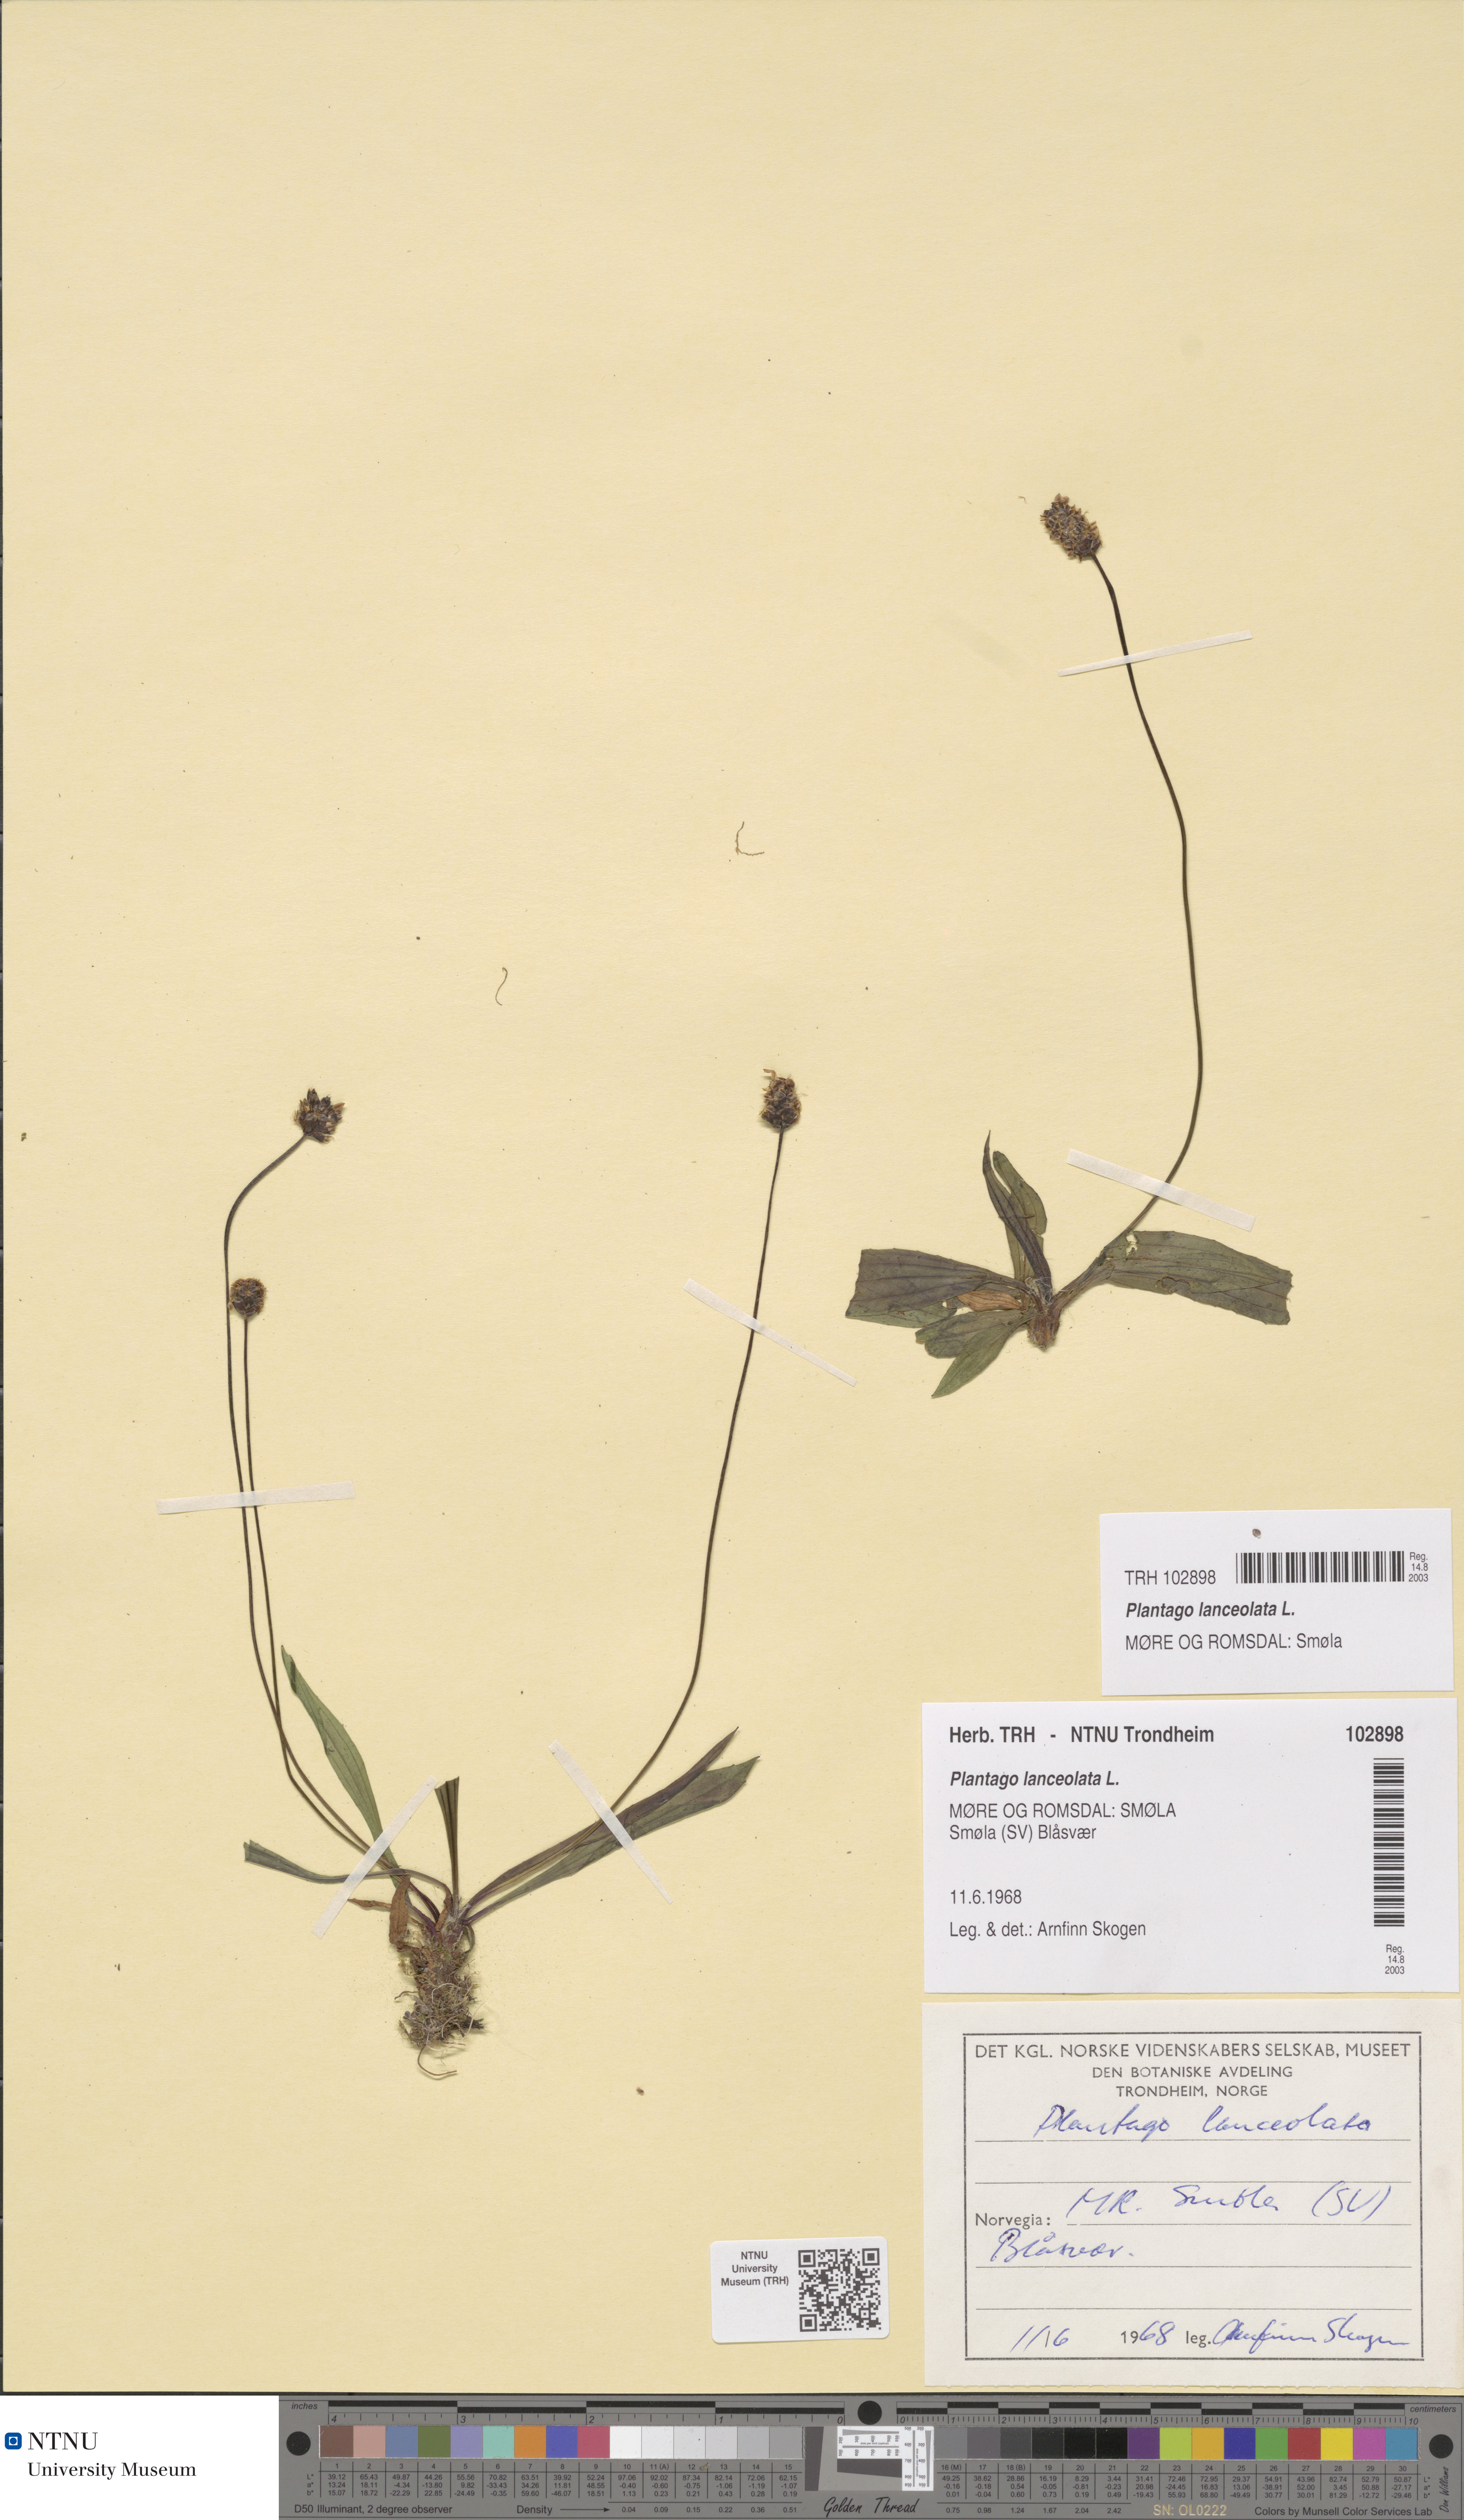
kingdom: Plantae
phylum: Tracheophyta
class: Magnoliopsida
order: Lamiales
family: Plantaginaceae
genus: Plantago
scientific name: Plantago lanceolata
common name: Ribwort plantain
